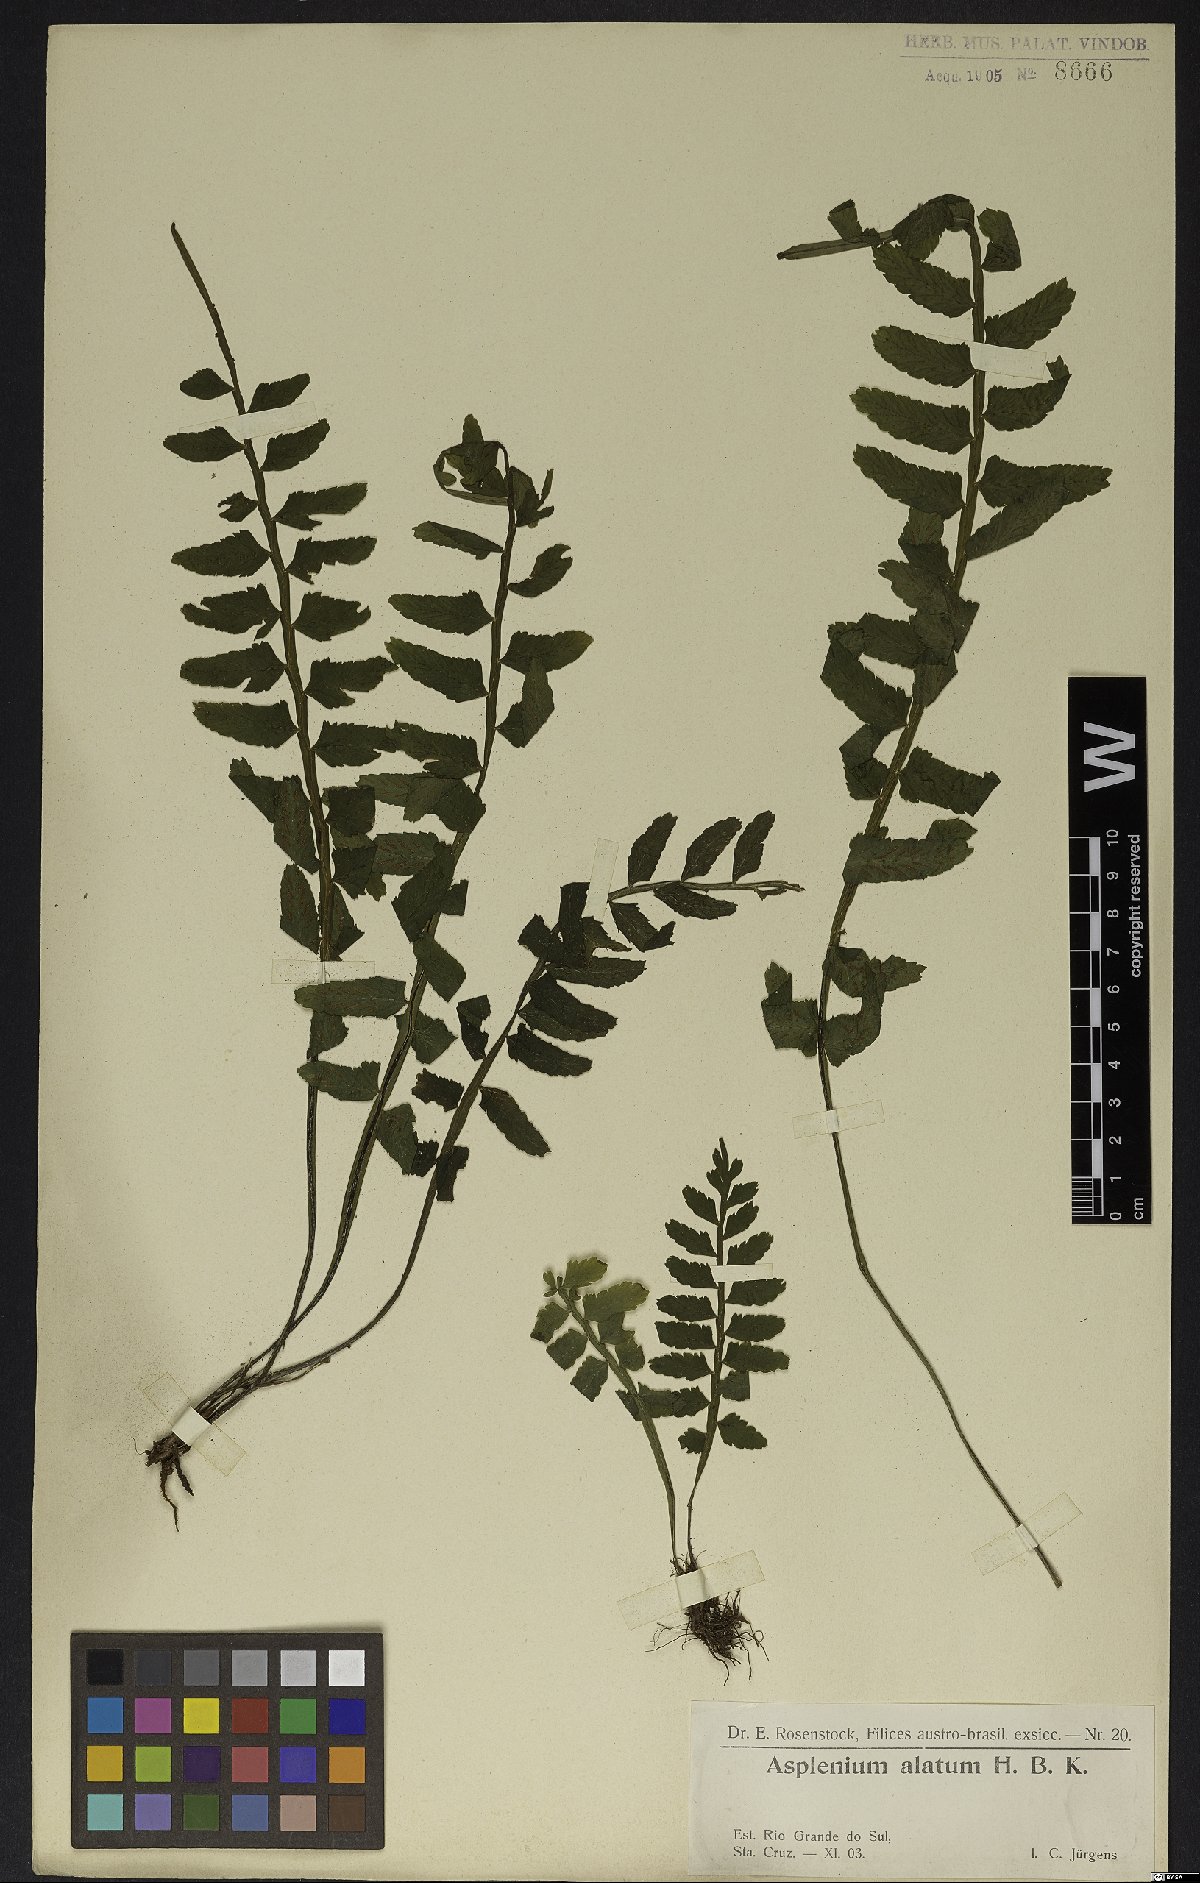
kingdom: Plantae
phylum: Tracheophyta
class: Polypodiopsida
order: Polypodiales
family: Aspleniaceae
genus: Asplenium
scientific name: Asplenium alatum
